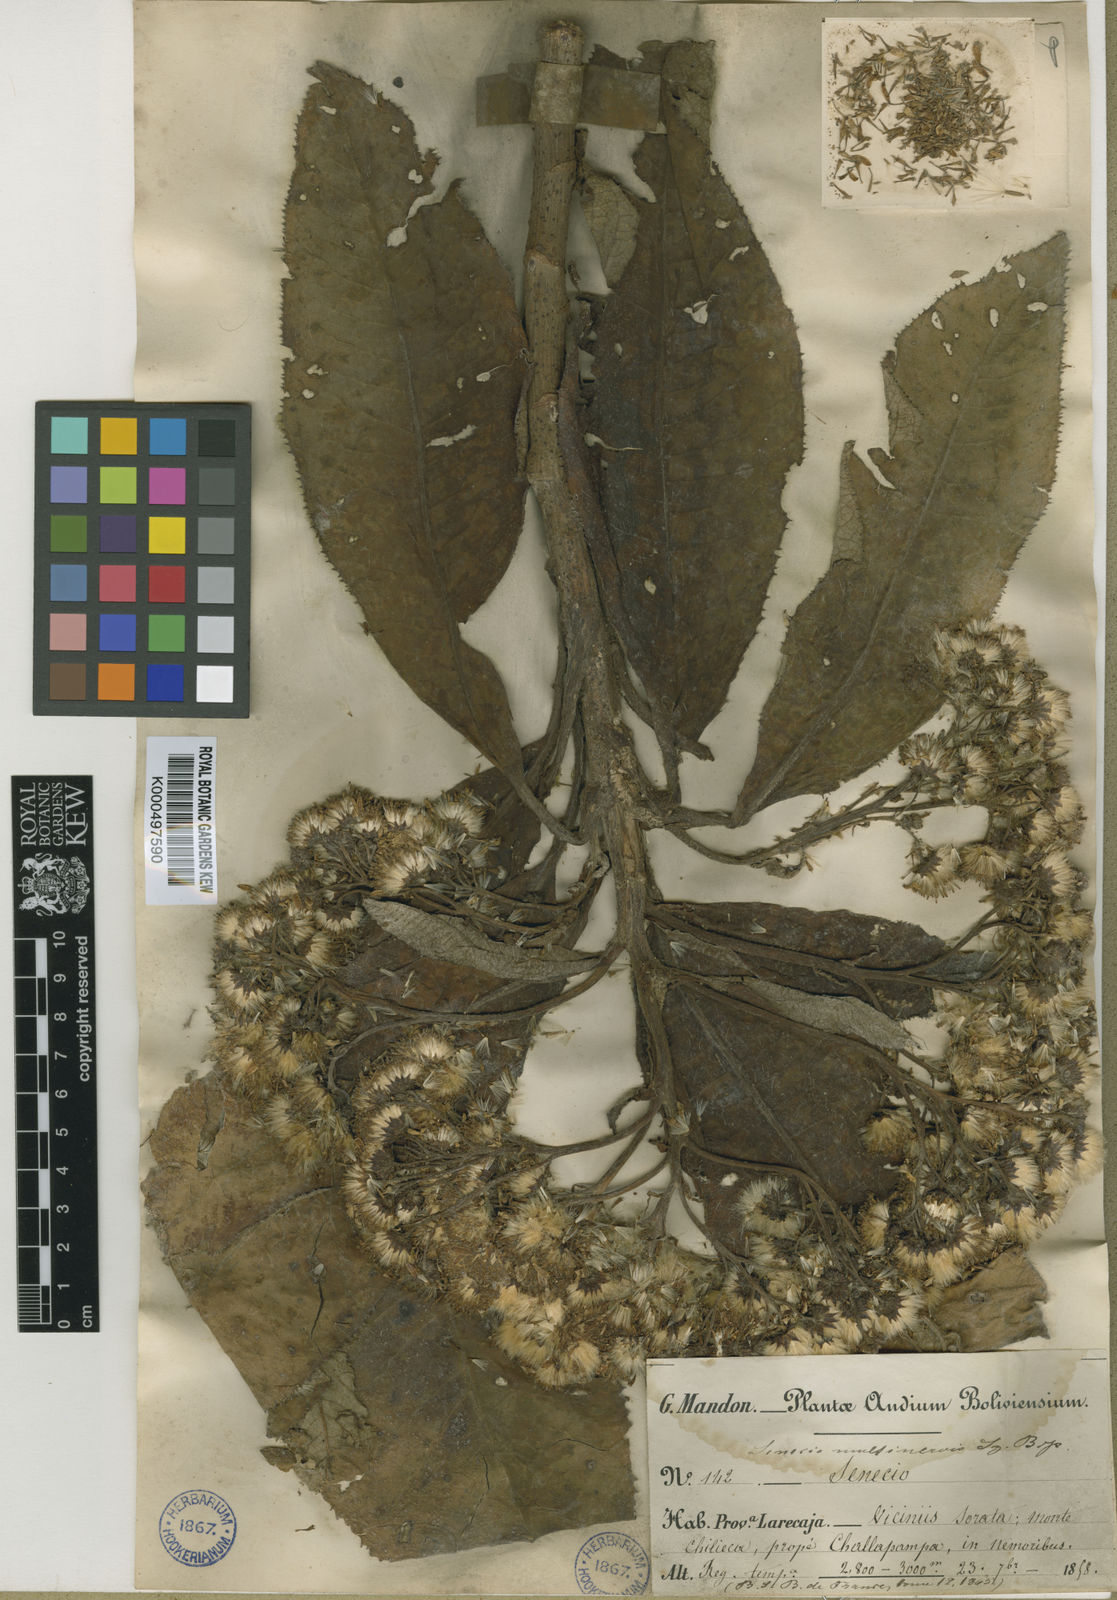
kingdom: Plantae
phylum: Tracheophyta
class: Magnoliopsida
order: Asterales
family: Asteraceae
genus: Dendrophorbium
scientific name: Dendrophorbium multinerve
